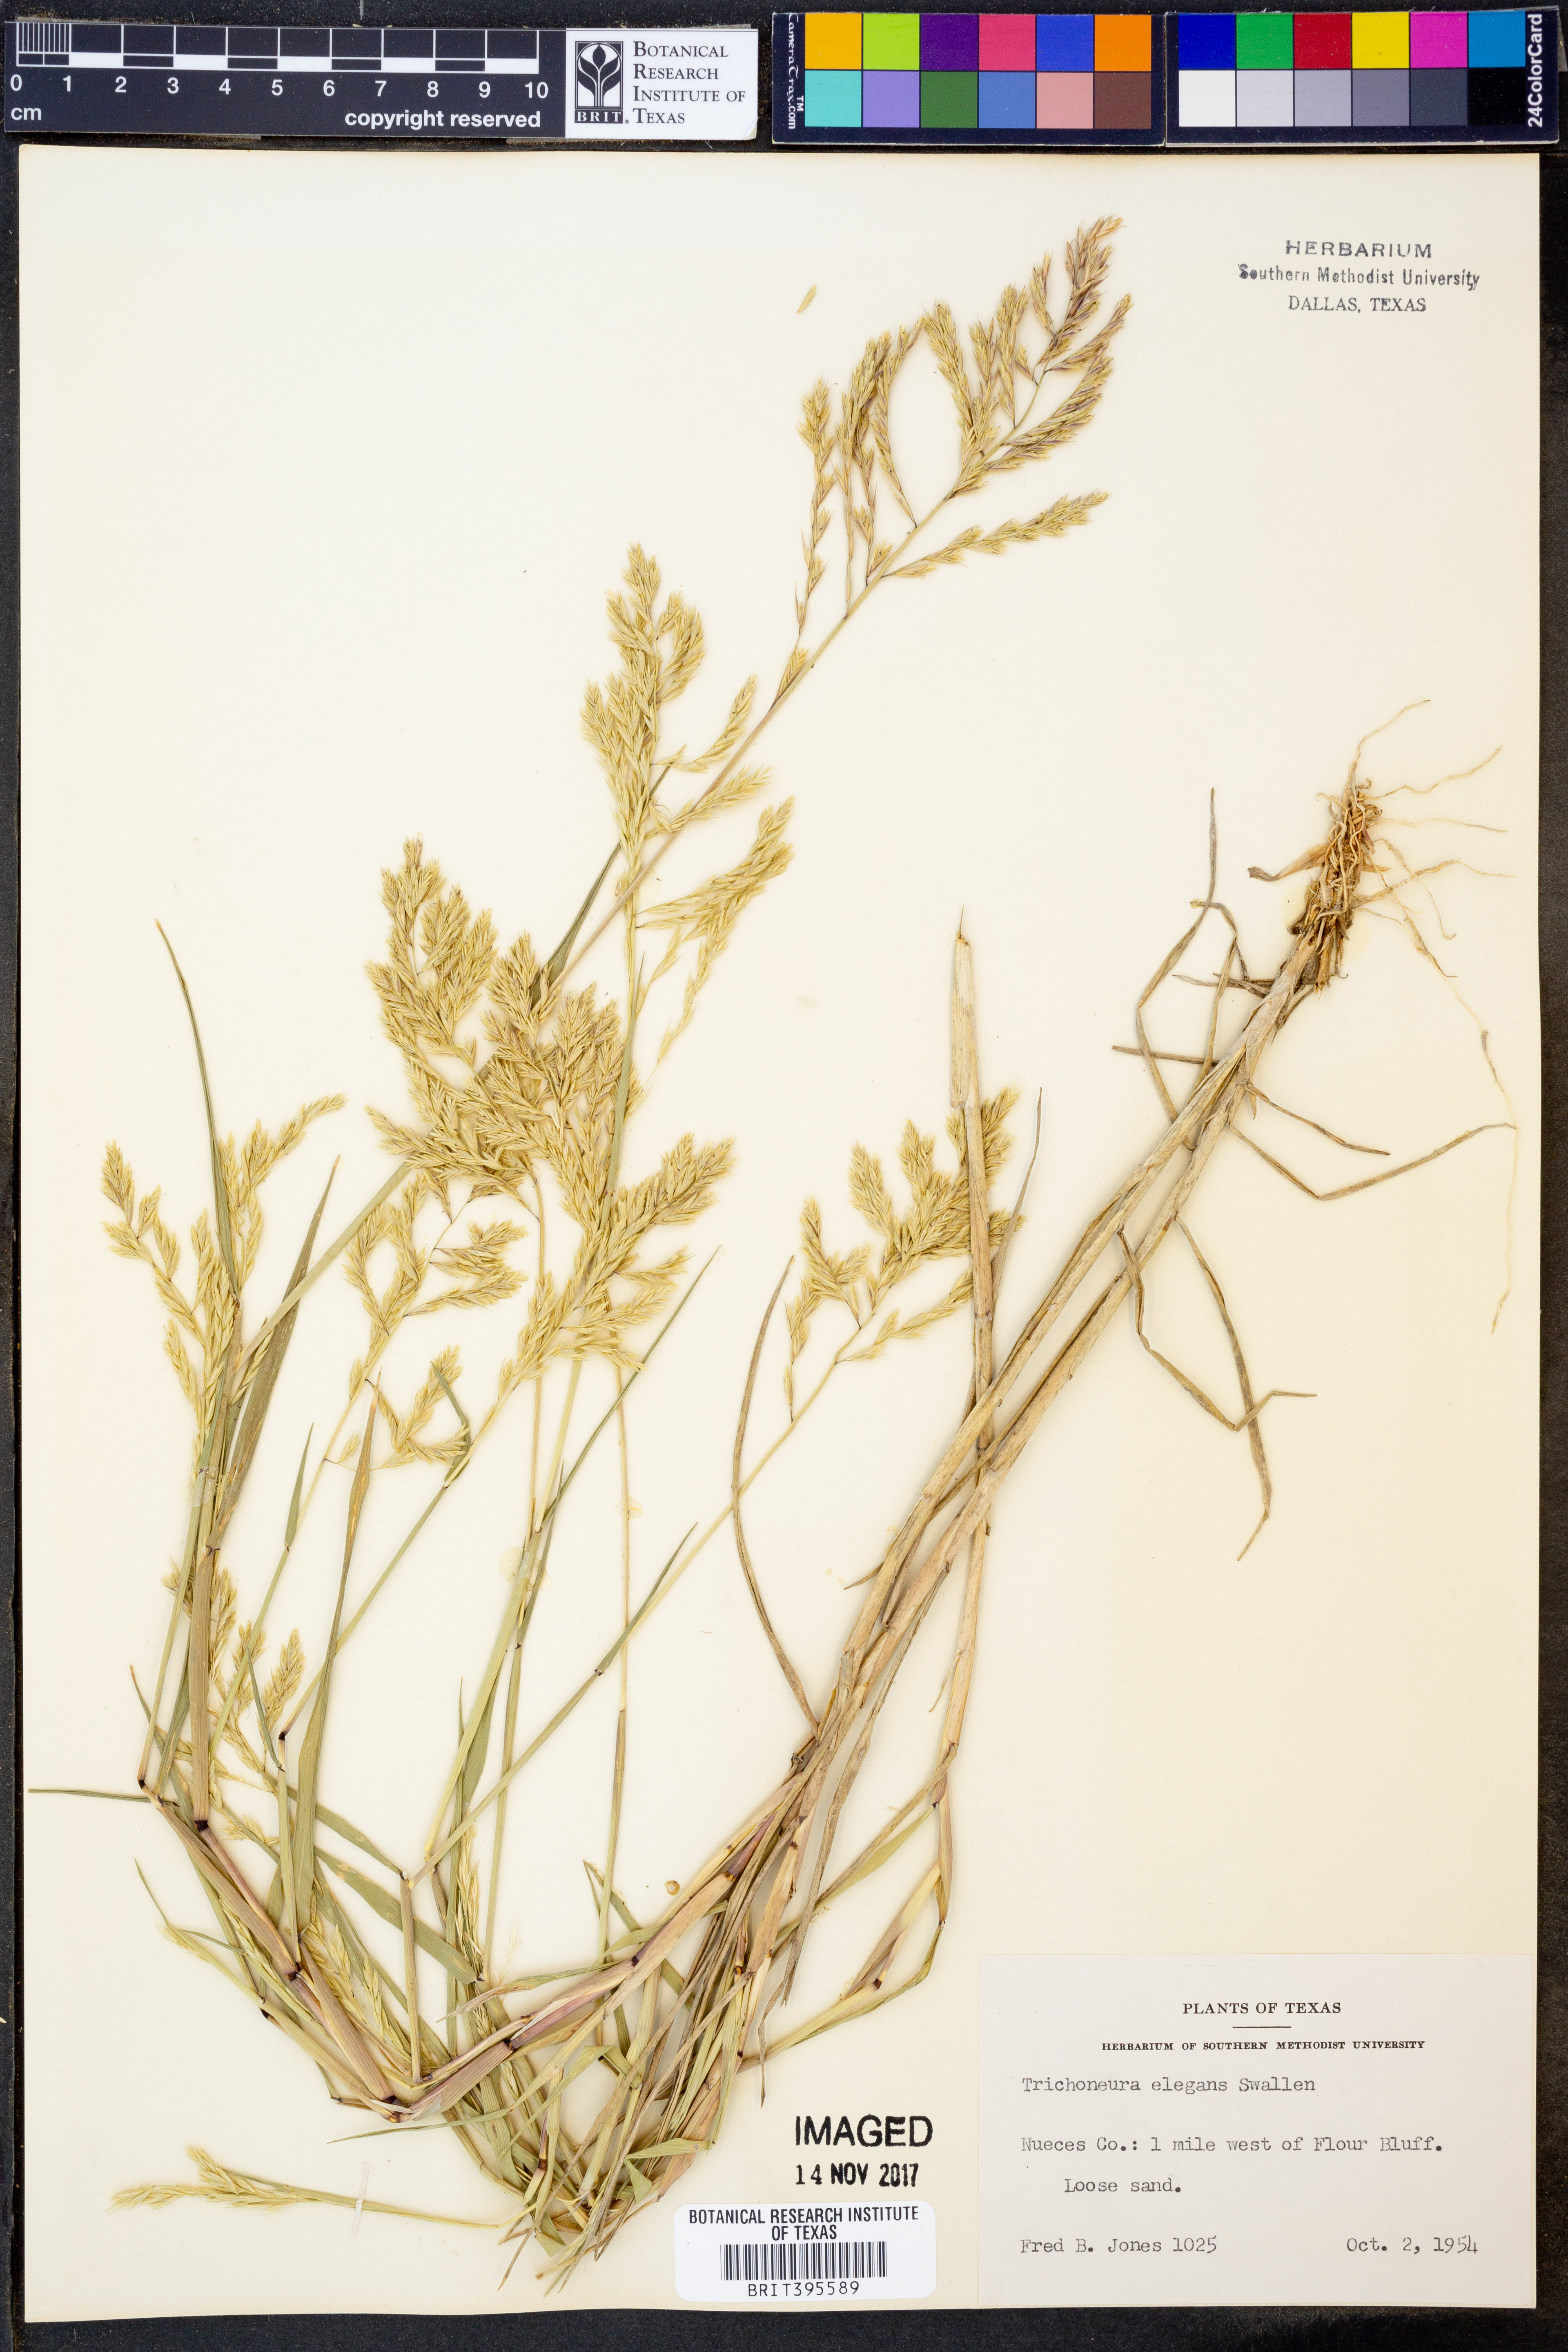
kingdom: Plantae
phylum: Tracheophyta
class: Liliopsida
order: Poales
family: Poaceae
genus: Trichoneura
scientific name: Trichoneura elegans
